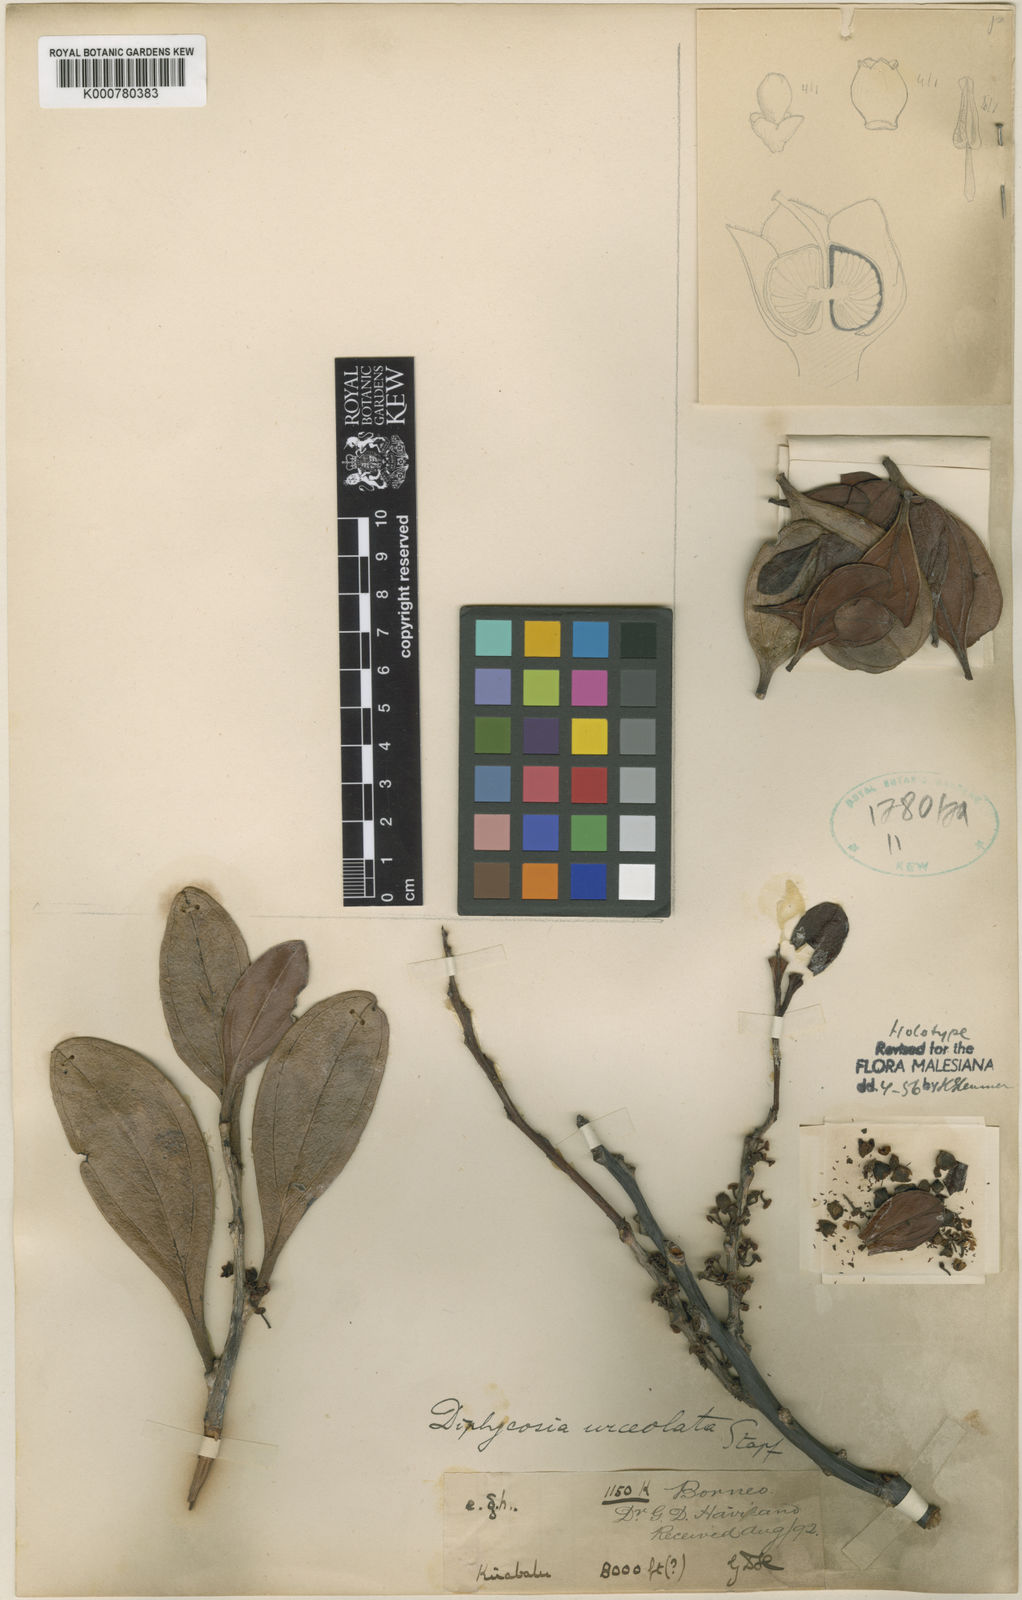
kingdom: Plantae
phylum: Tracheophyta
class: Magnoliopsida
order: Ericales
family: Ericaceae
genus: Gaultheria
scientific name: Gaultheria urceolata
